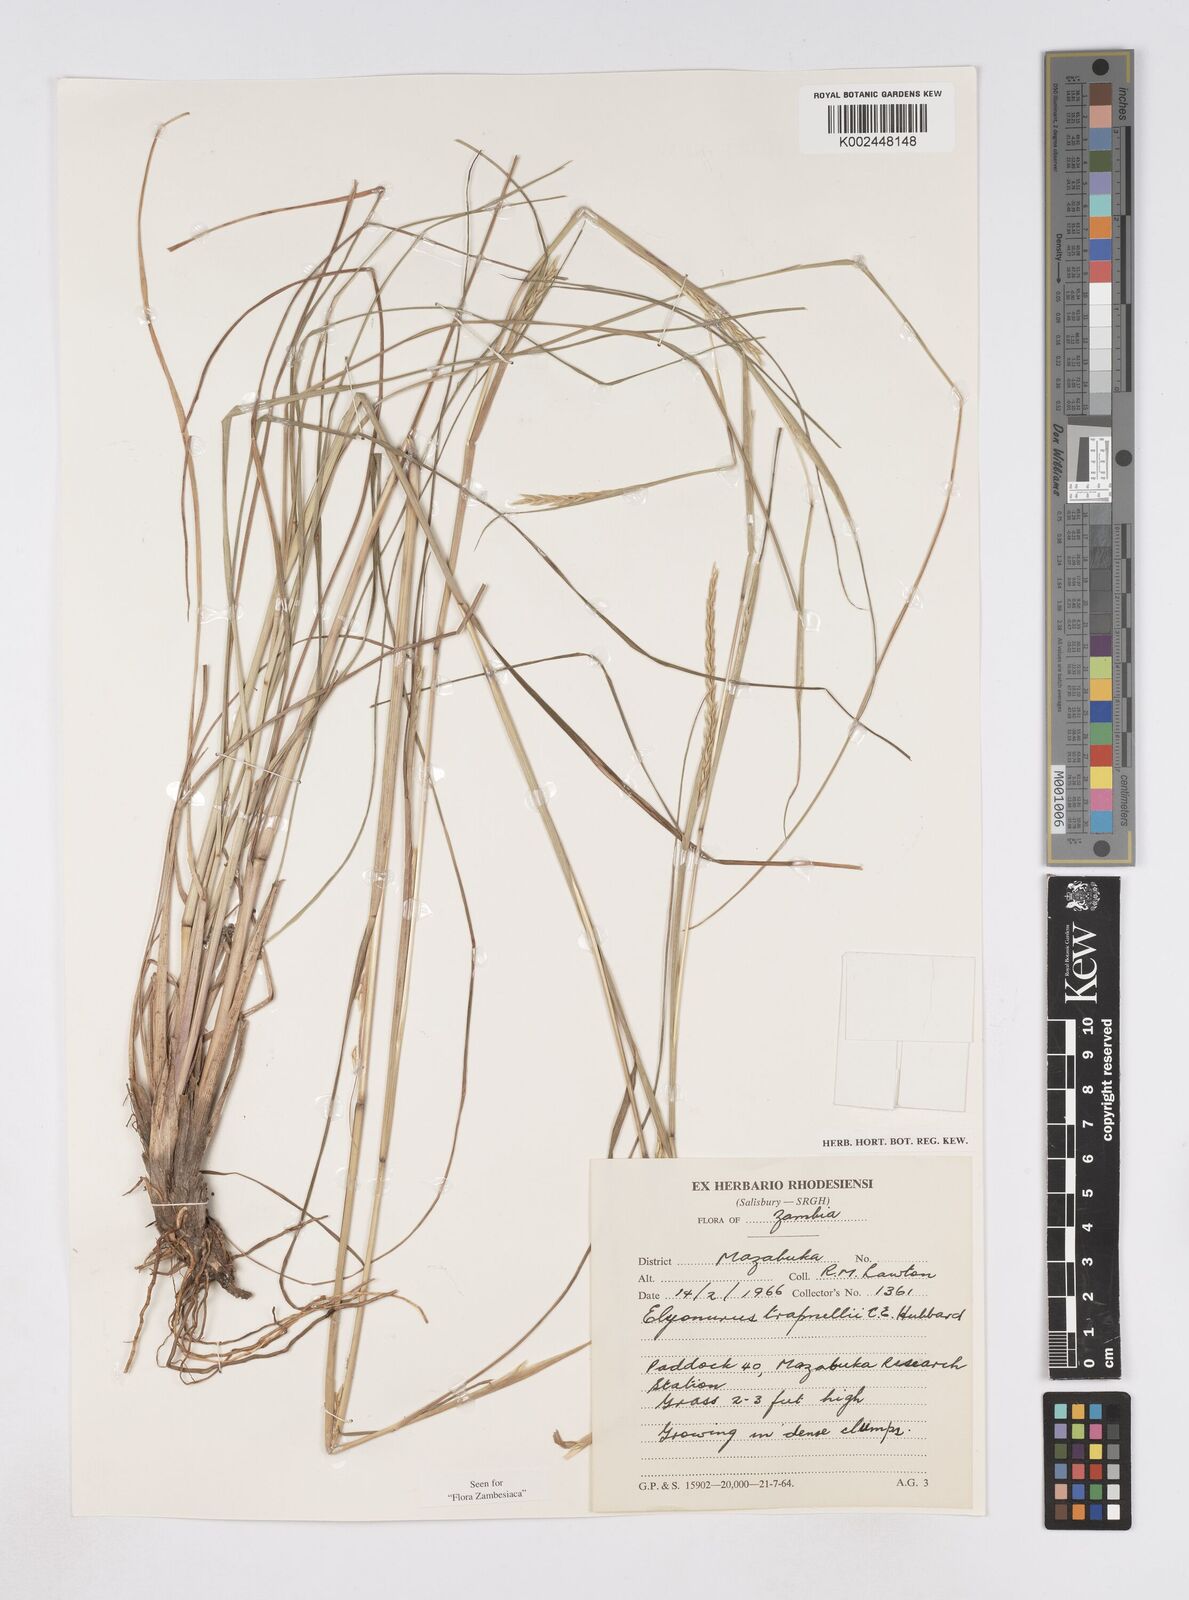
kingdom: Plantae
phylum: Tracheophyta
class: Liliopsida
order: Poales
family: Poaceae
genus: Elionurus
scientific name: Elionurus tripsacoides
